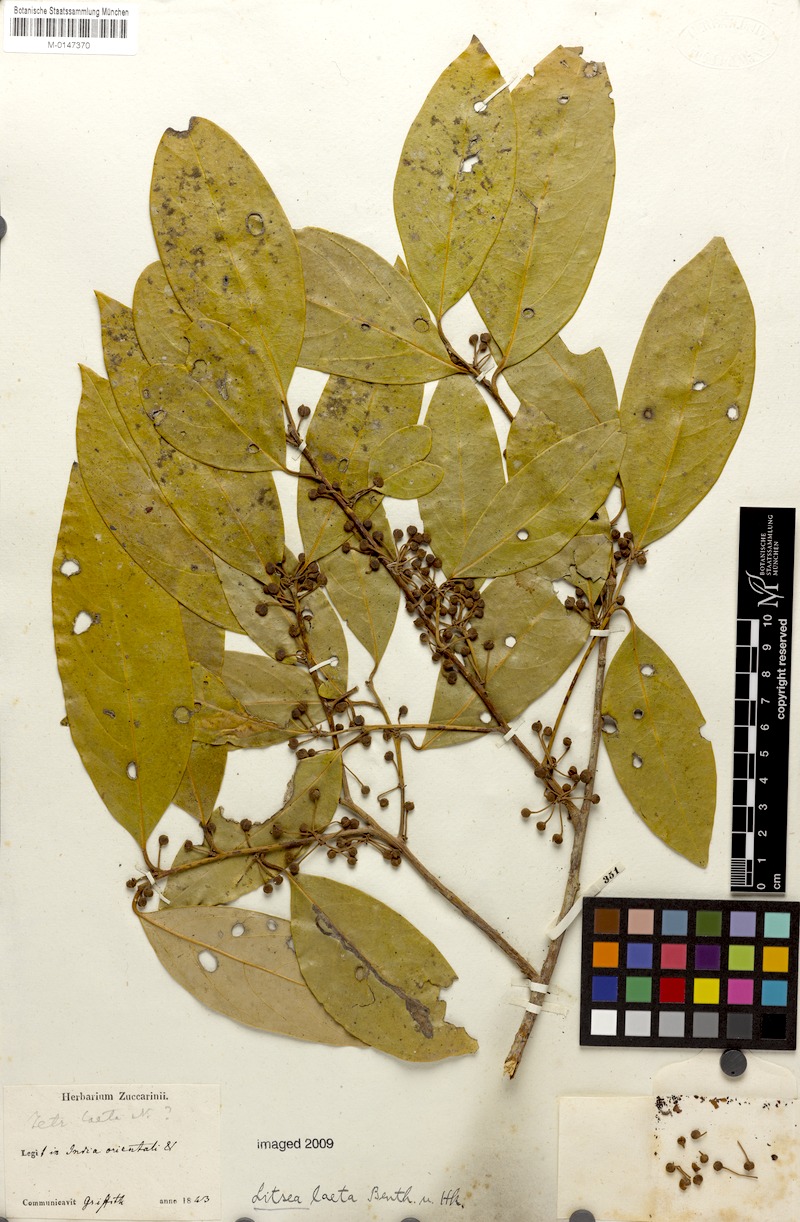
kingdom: Plantae
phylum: Tracheophyta
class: Magnoliopsida
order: Laurales
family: Lauraceae
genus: Litsea
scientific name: Litsea laeta
